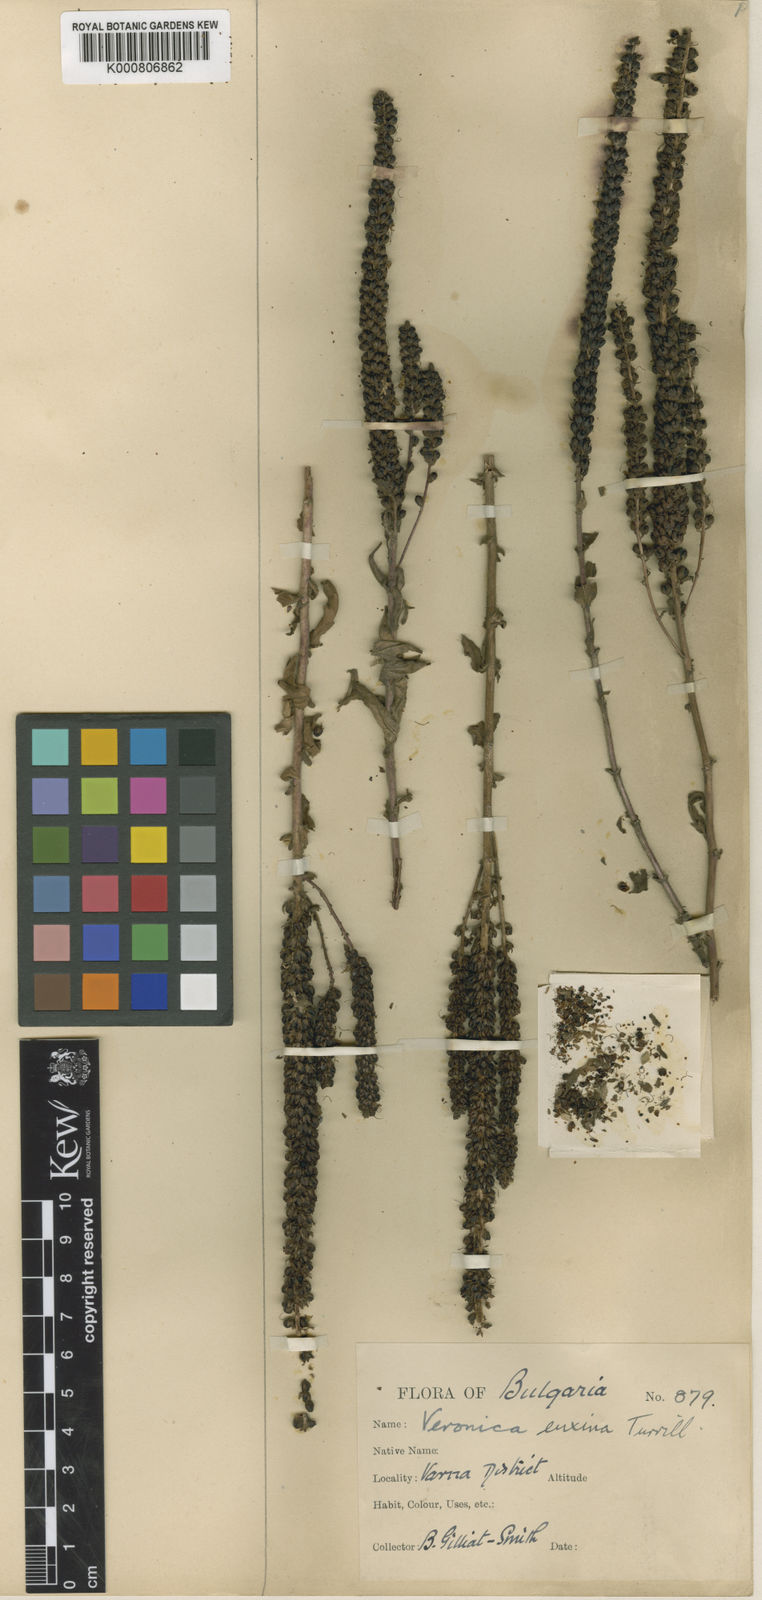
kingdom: Plantae
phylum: Tracheophyta
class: Magnoliopsida
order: Lamiales
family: Plantaginaceae
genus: Veronica
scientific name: Veronica spicata
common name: Spiked speedwell
